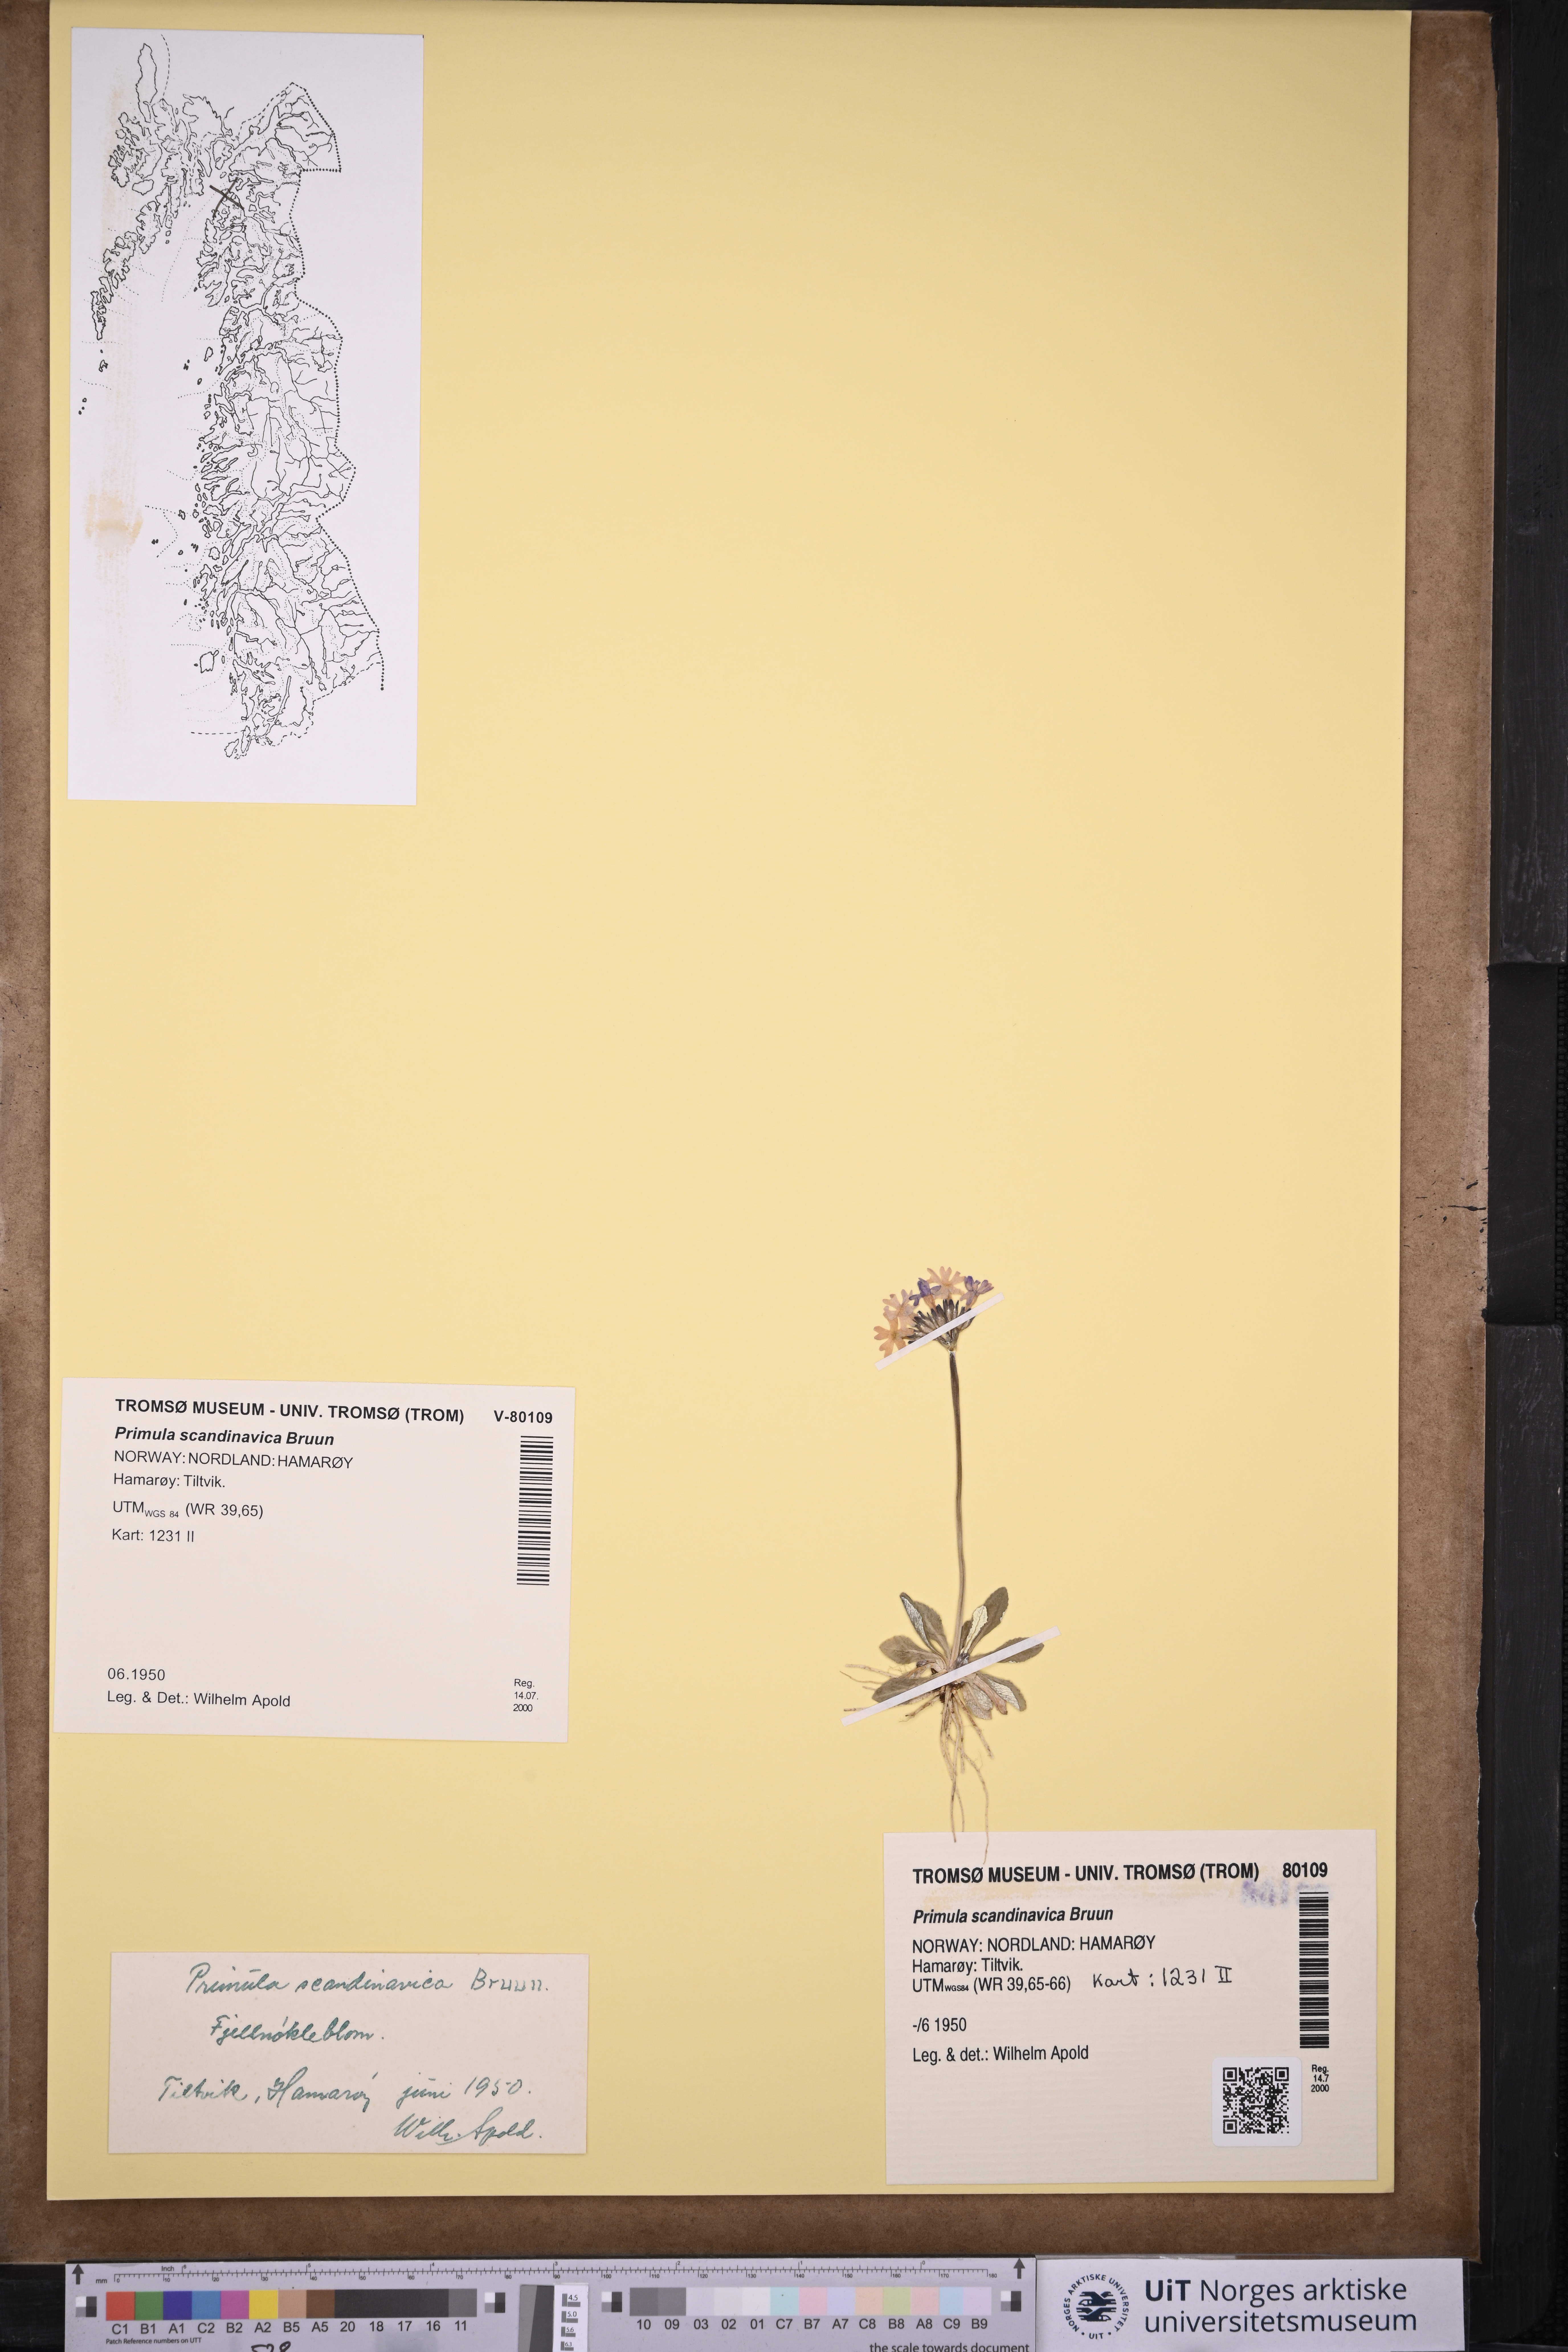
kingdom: Plantae
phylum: Tracheophyta
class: Magnoliopsida
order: Ericales
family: Primulaceae
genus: Primula
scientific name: Primula scandinavica
